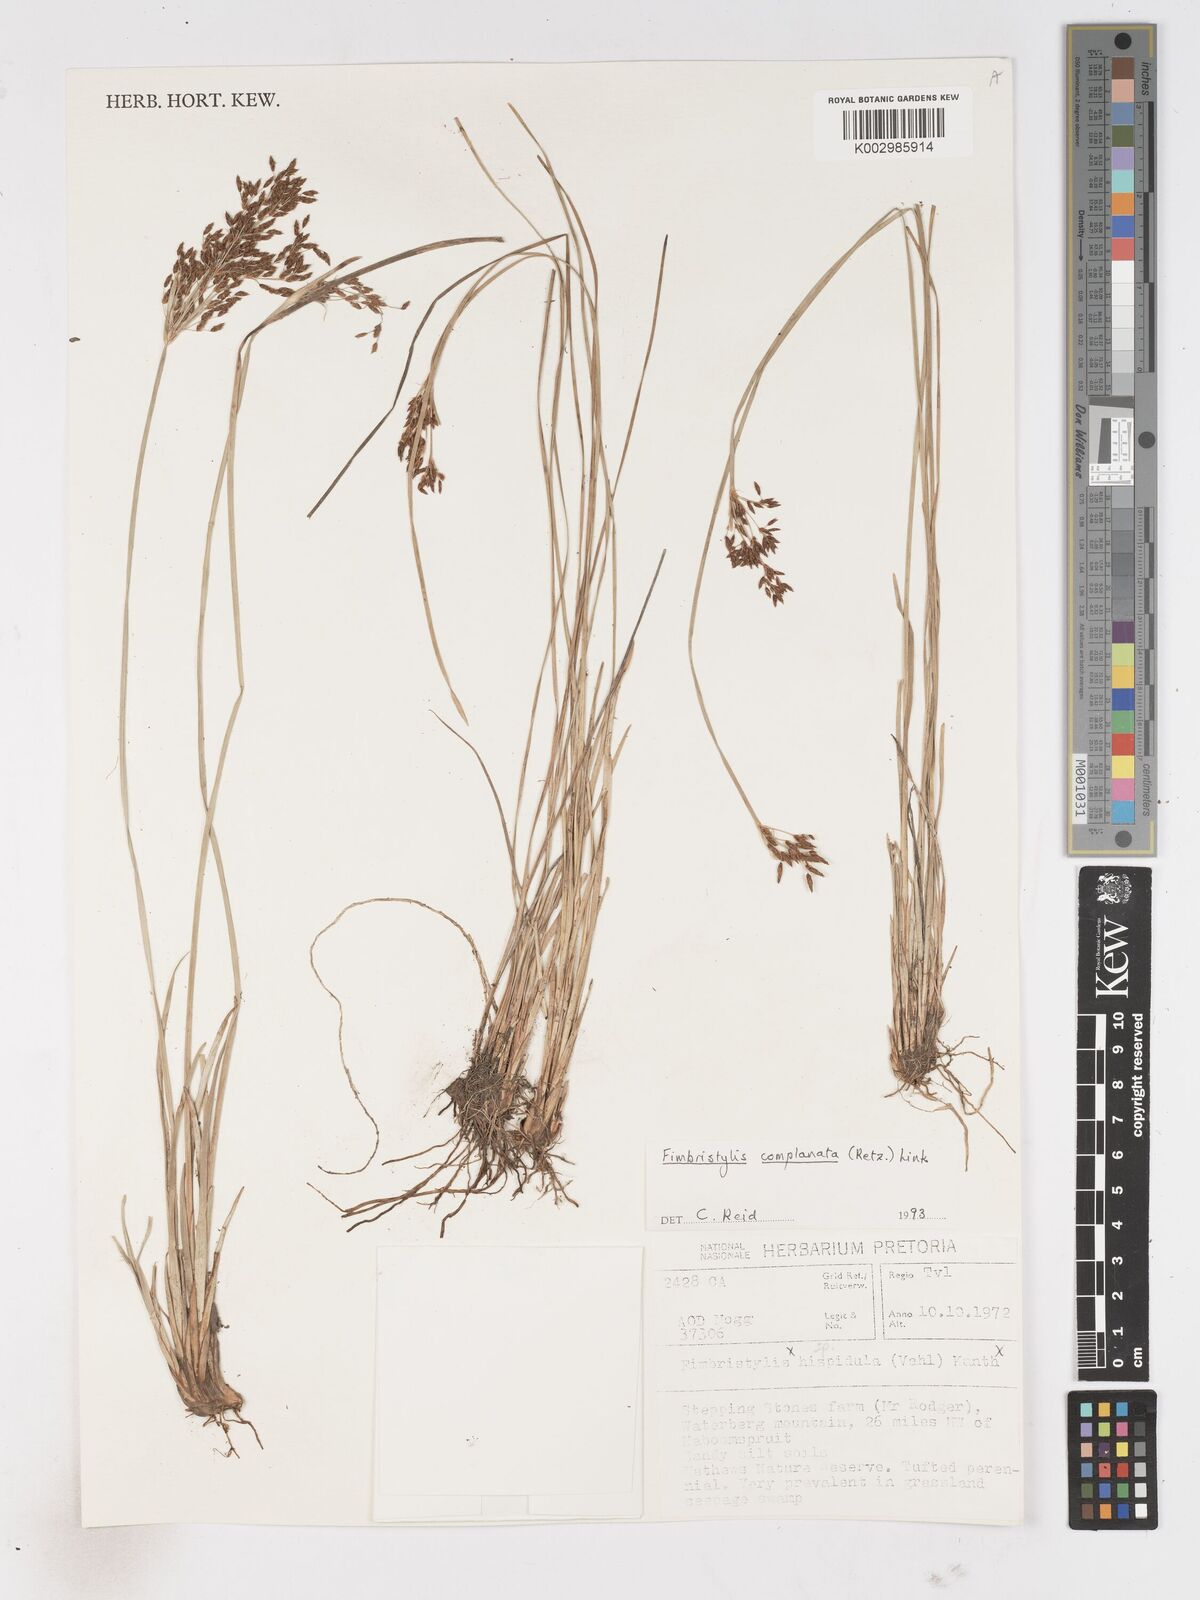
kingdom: Plantae
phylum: Tracheophyta
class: Liliopsida
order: Poales
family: Cyperaceae
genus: Fimbristylis
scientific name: Fimbristylis complanata
